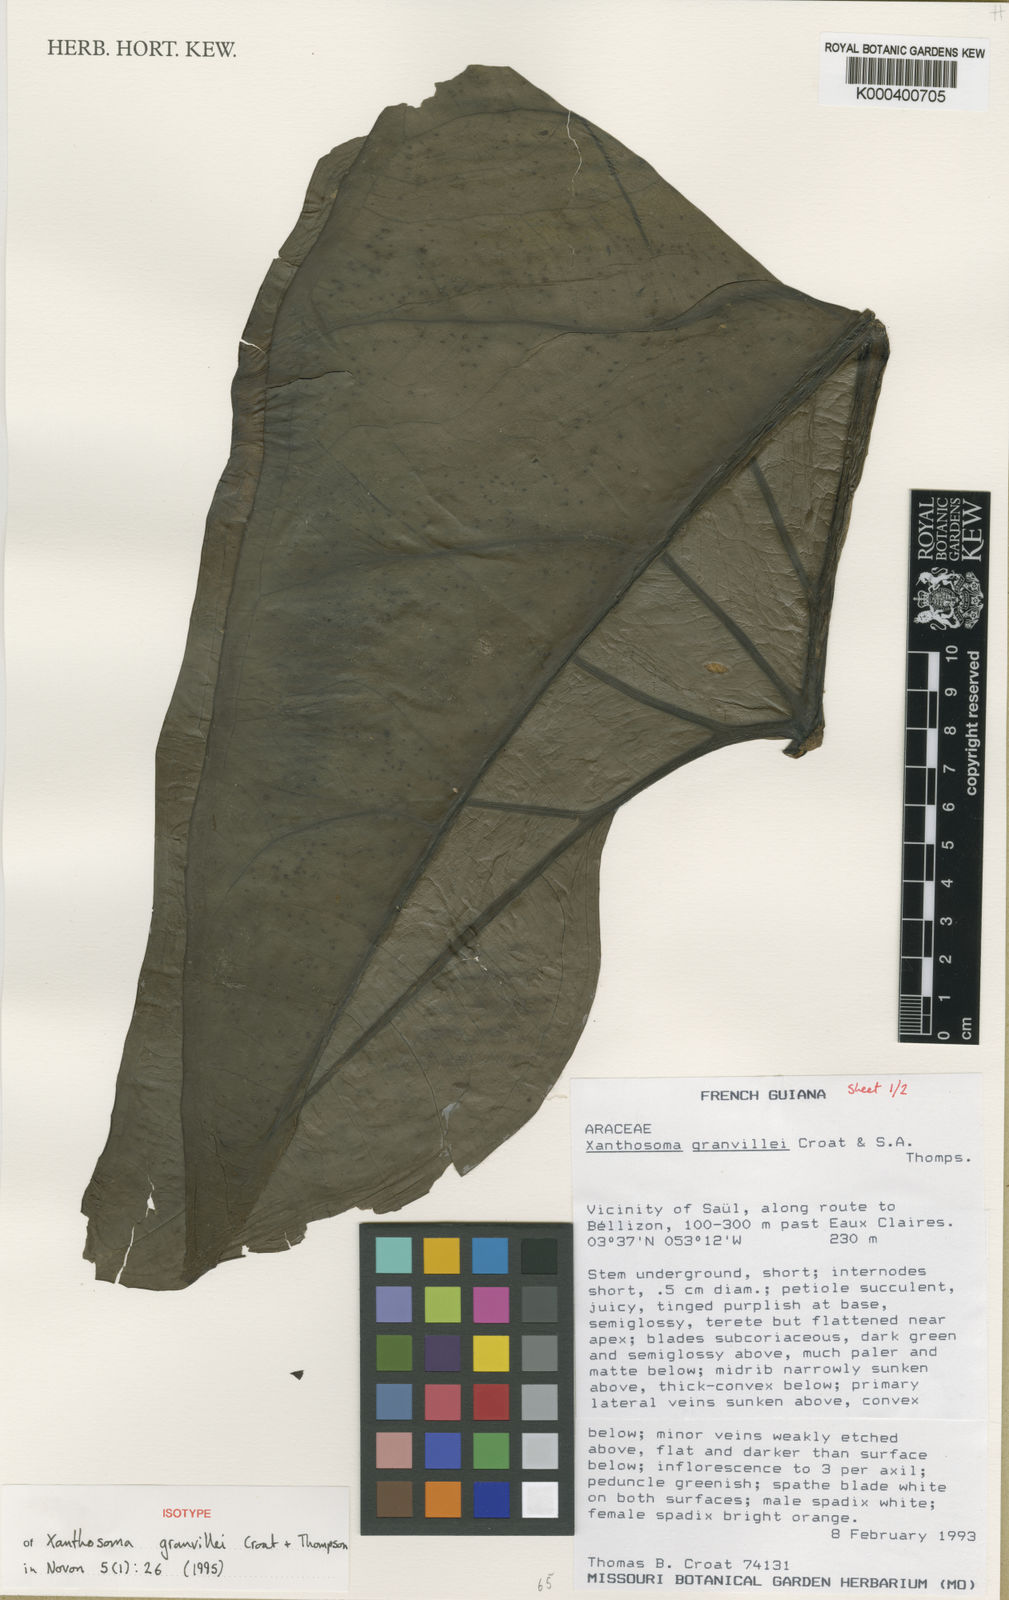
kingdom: Plantae
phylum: Tracheophyta
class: Liliopsida
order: Alismatales
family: Araceae
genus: Xanthosoma
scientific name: Xanthosoma granvillei
